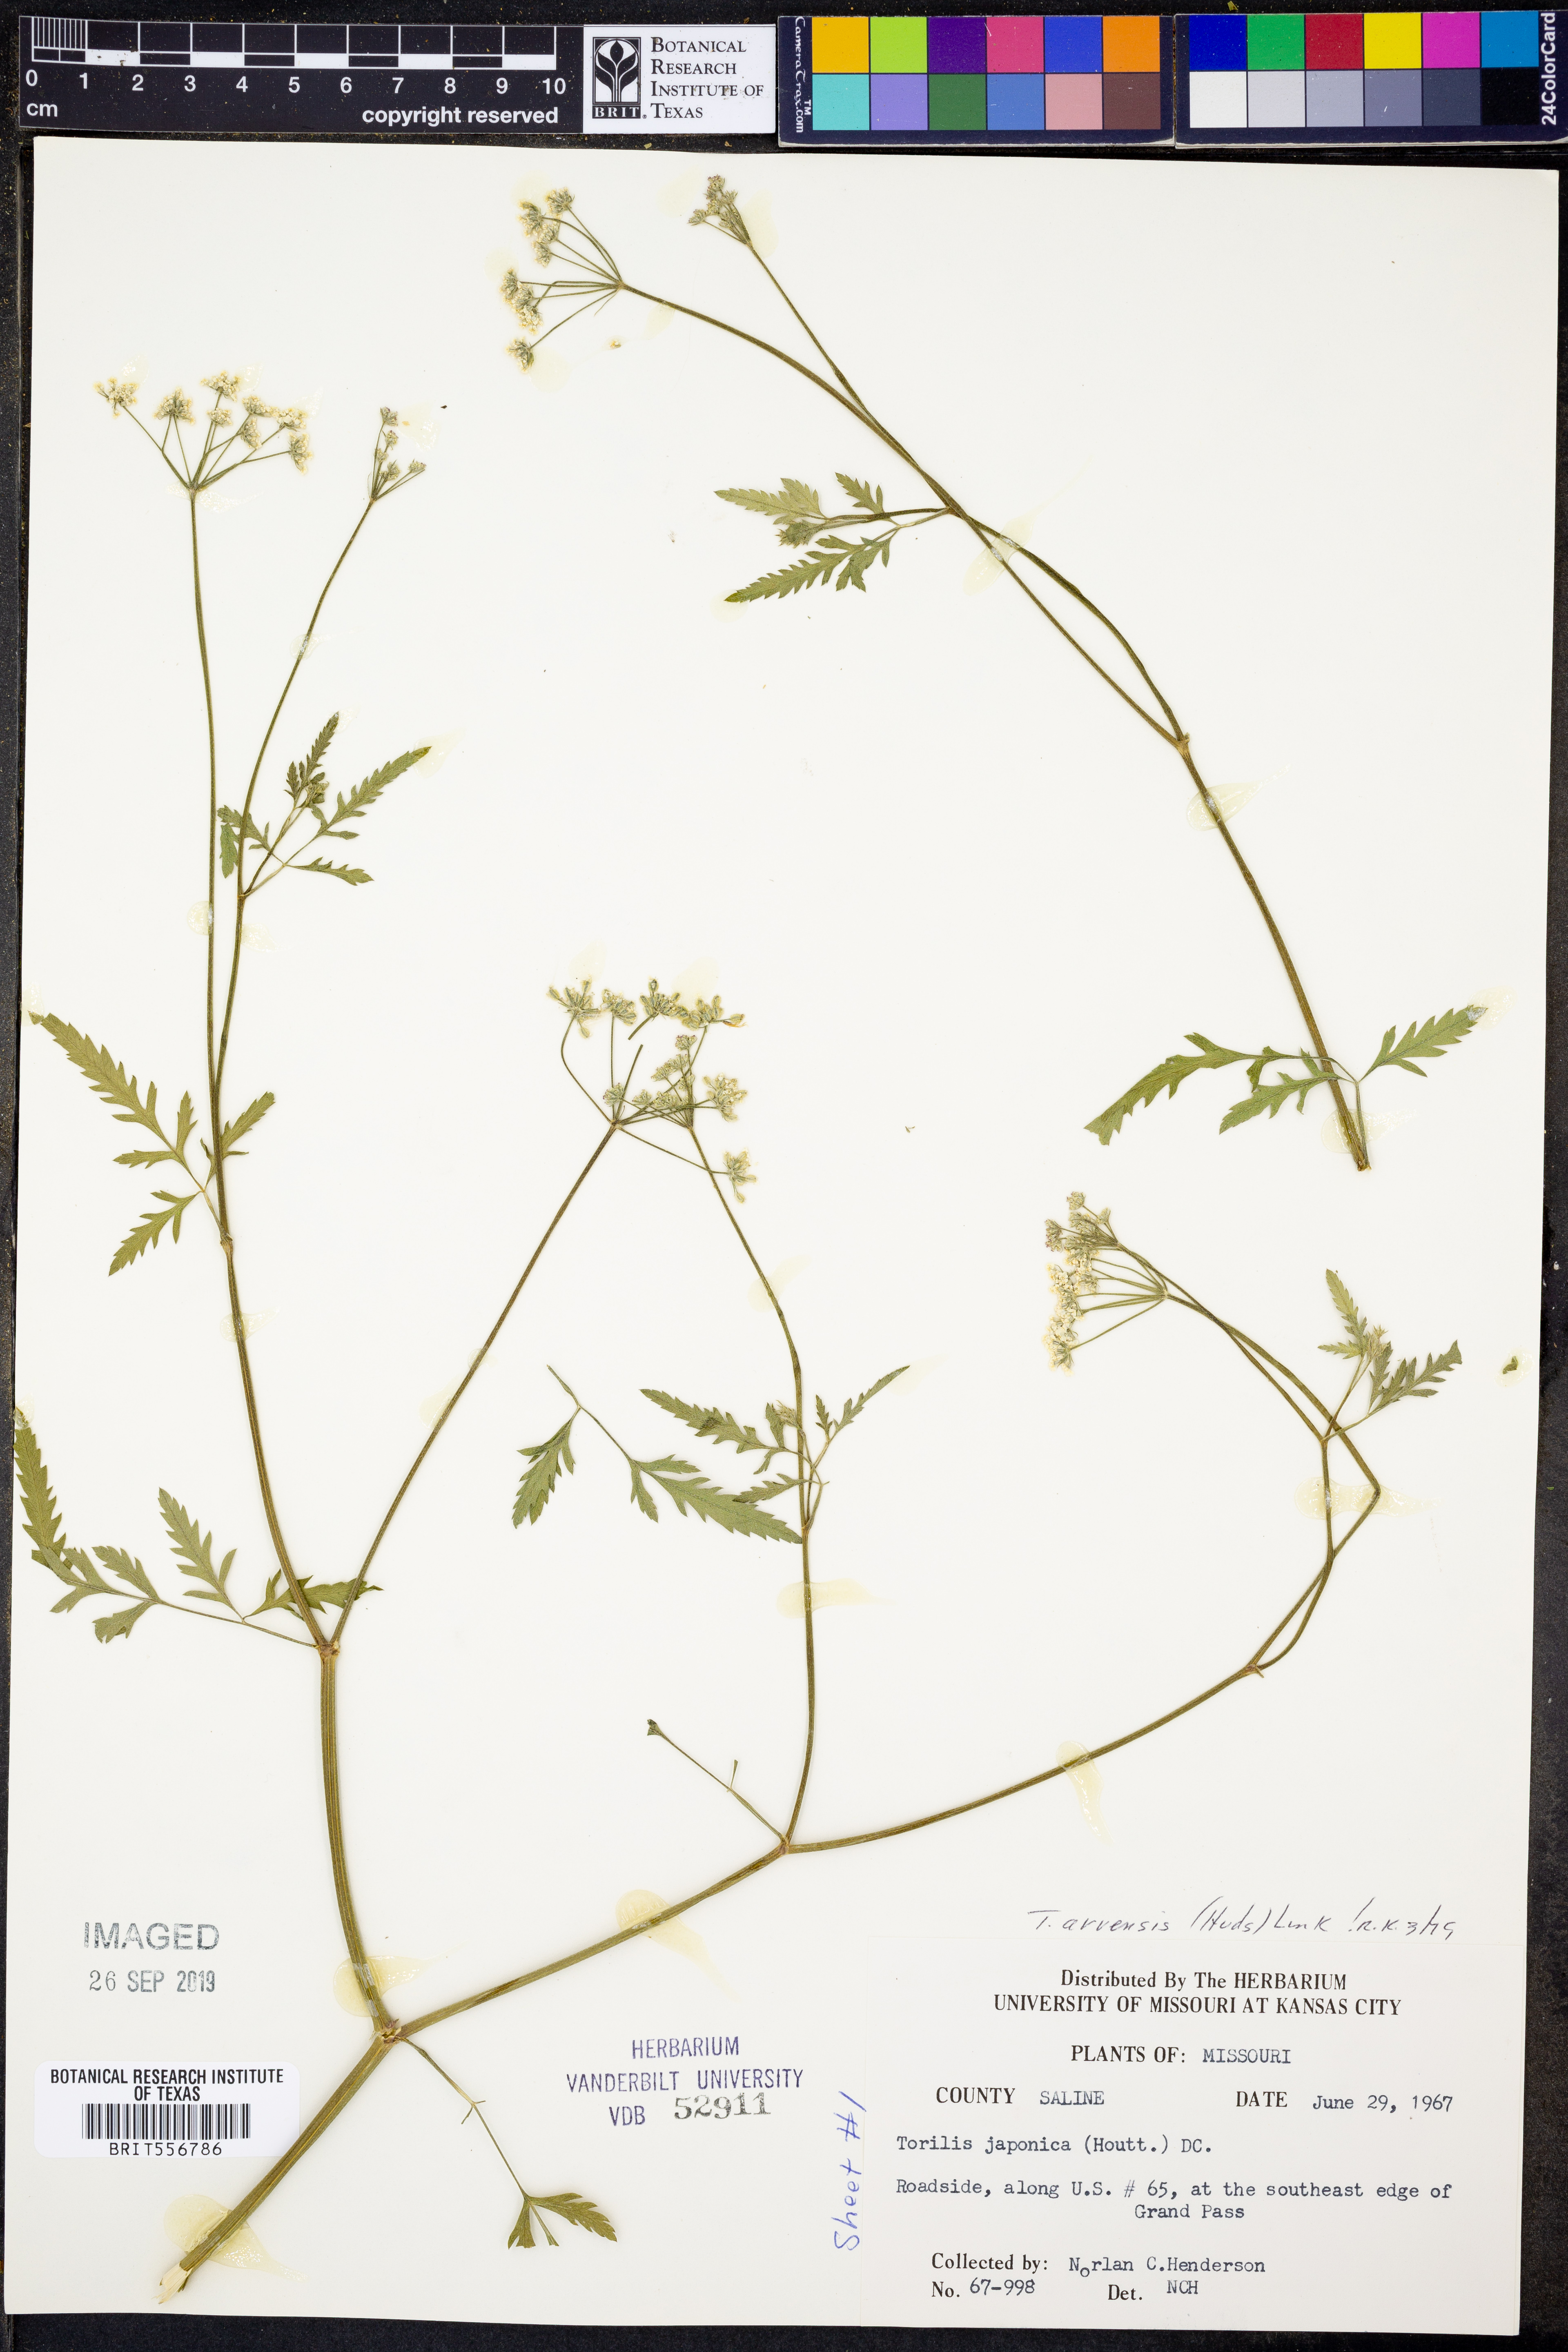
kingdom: Plantae
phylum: Tracheophyta
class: Magnoliopsida
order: Apiales
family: Apiaceae
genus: Torilis
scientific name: Torilis arvensis
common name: Spreading hedge-parsley
